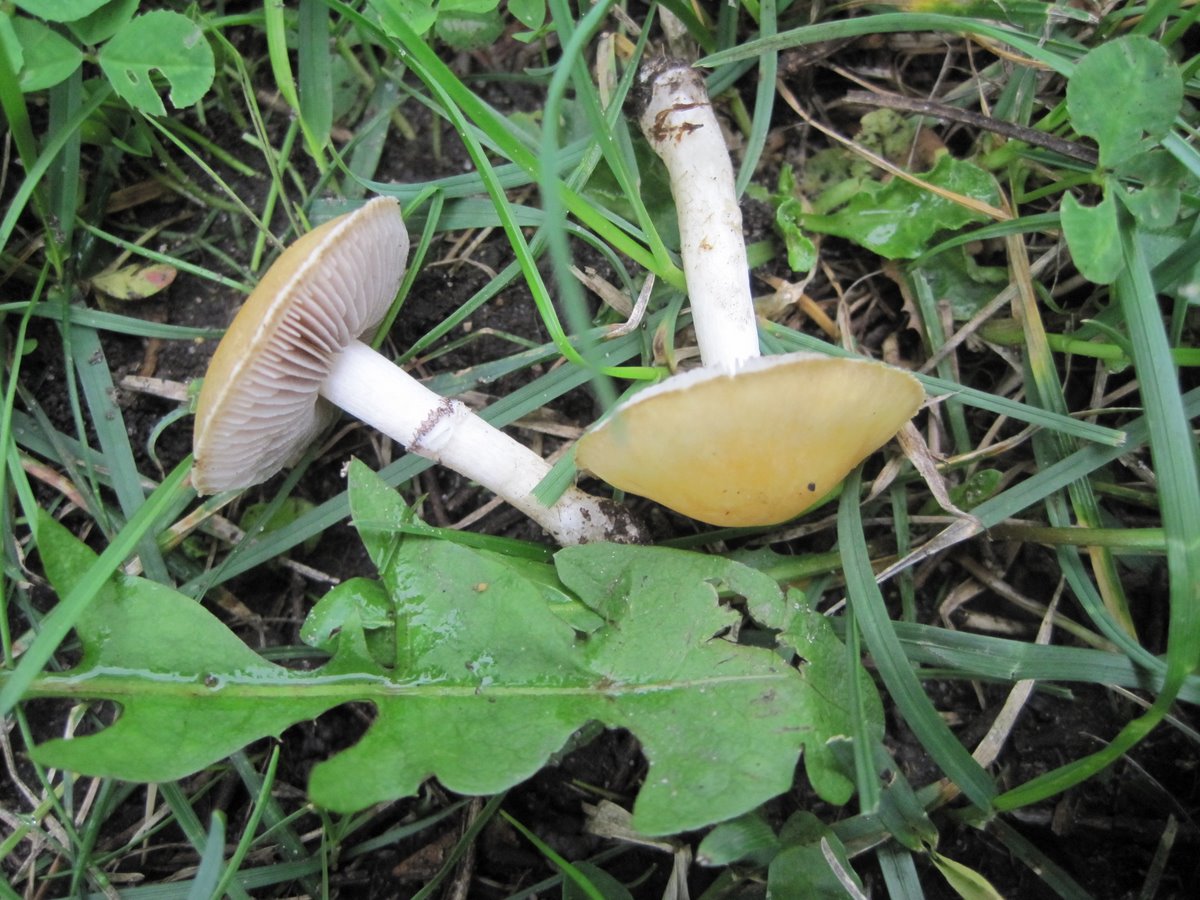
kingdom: Fungi
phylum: Basidiomycota
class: Agaricomycetes
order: Agaricales
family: Hymenogastraceae
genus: Psilocybe
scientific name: Psilocybe coronilla
